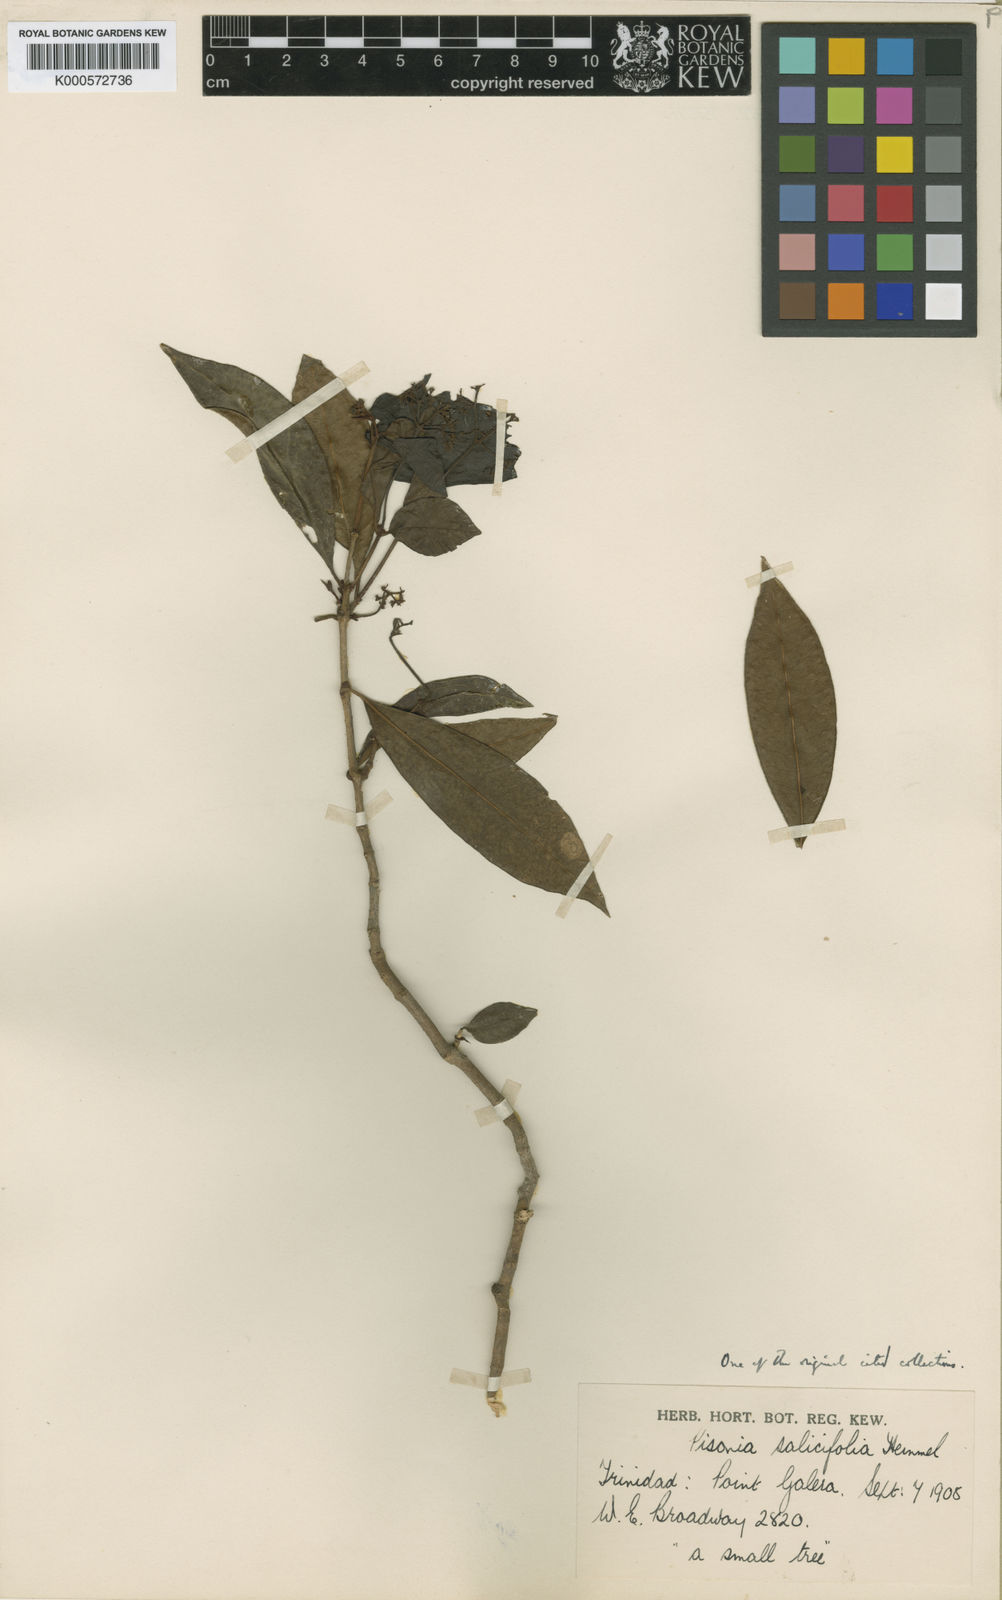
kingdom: Plantae
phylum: Tracheophyta
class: Magnoliopsida
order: Caryophyllales
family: Nyctaginaceae
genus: Guapira
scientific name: Guapira salicifolia
